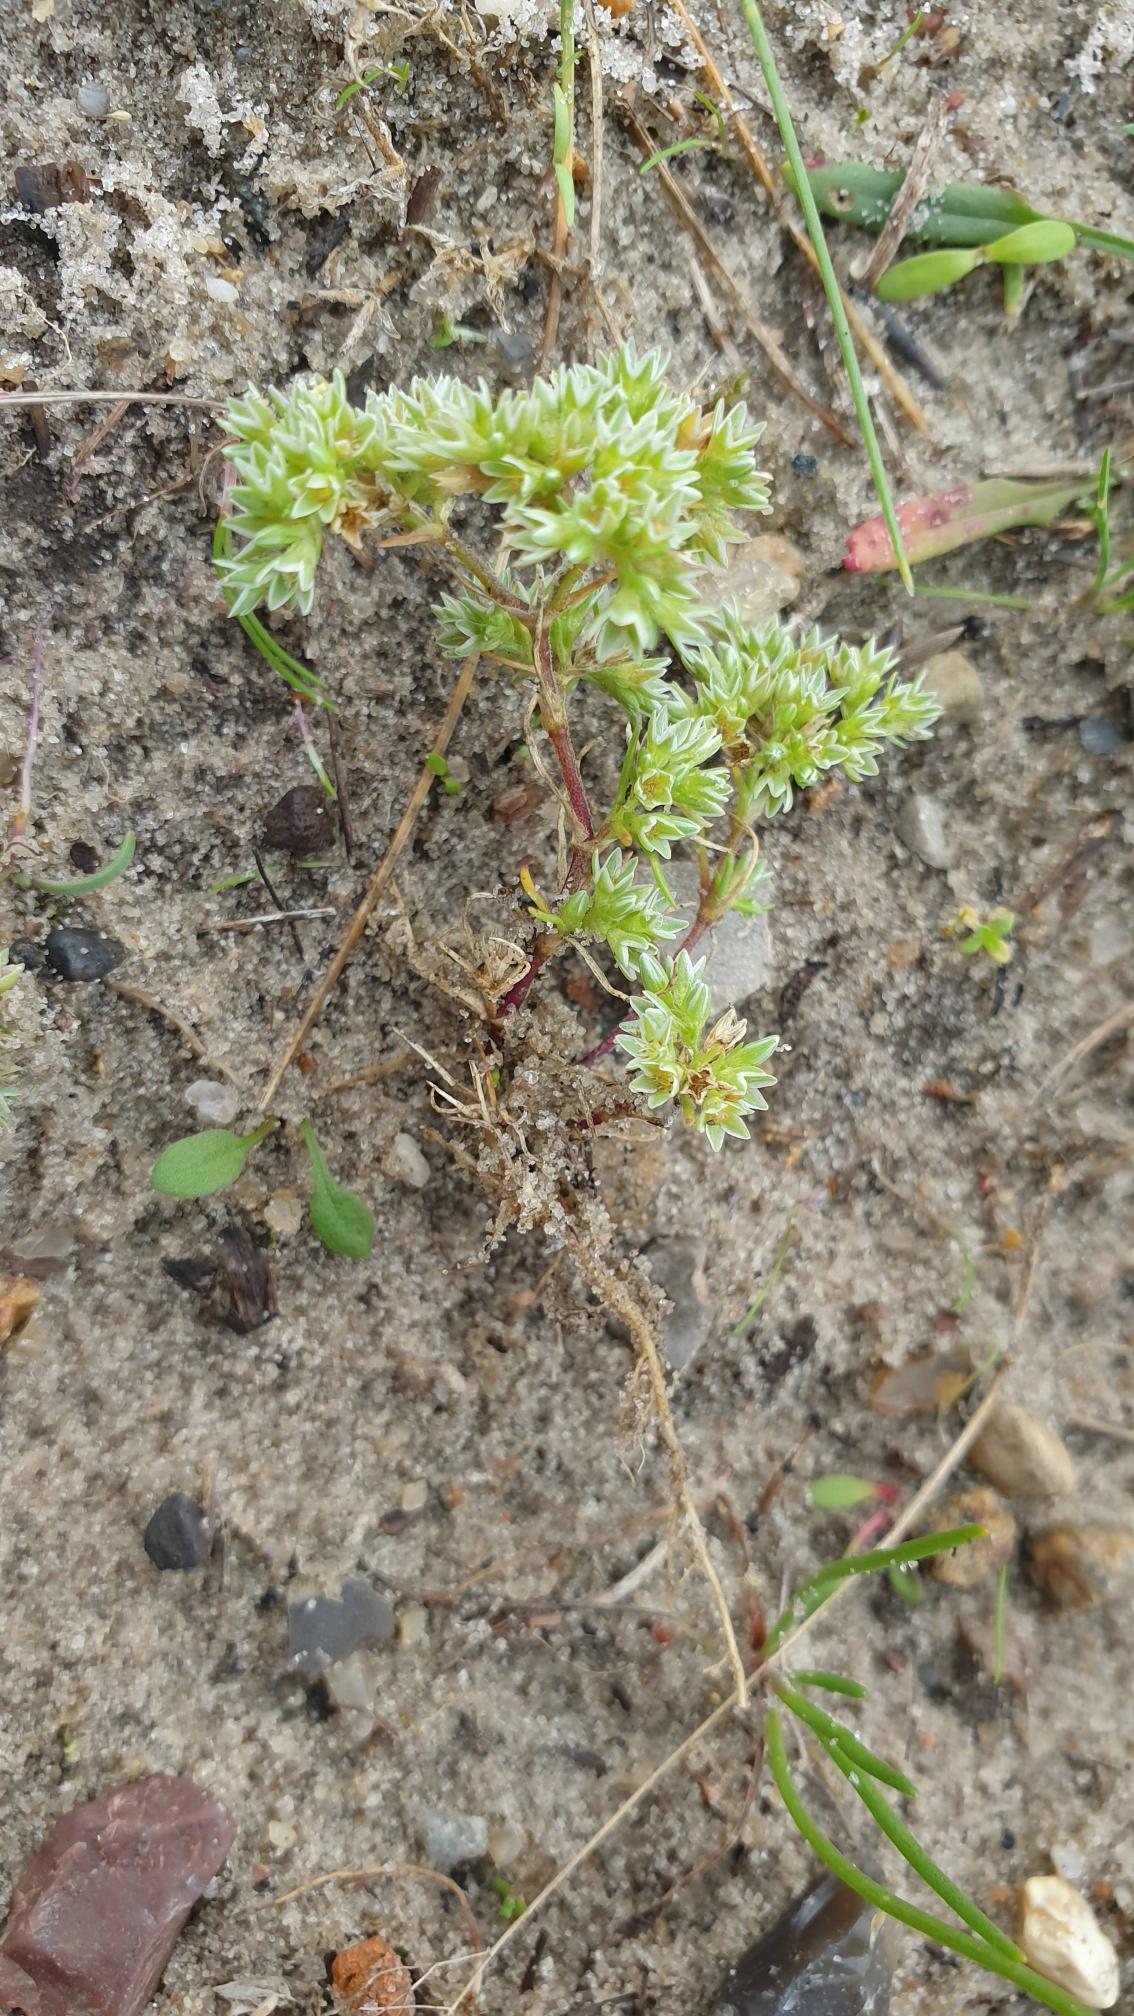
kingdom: Plantae
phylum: Tracheophyta
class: Magnoliopsida
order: Caryophyllales
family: Caryophyllaceae
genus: Scleranthus
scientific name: Scleranthus perennis
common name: Flerårig knavel
